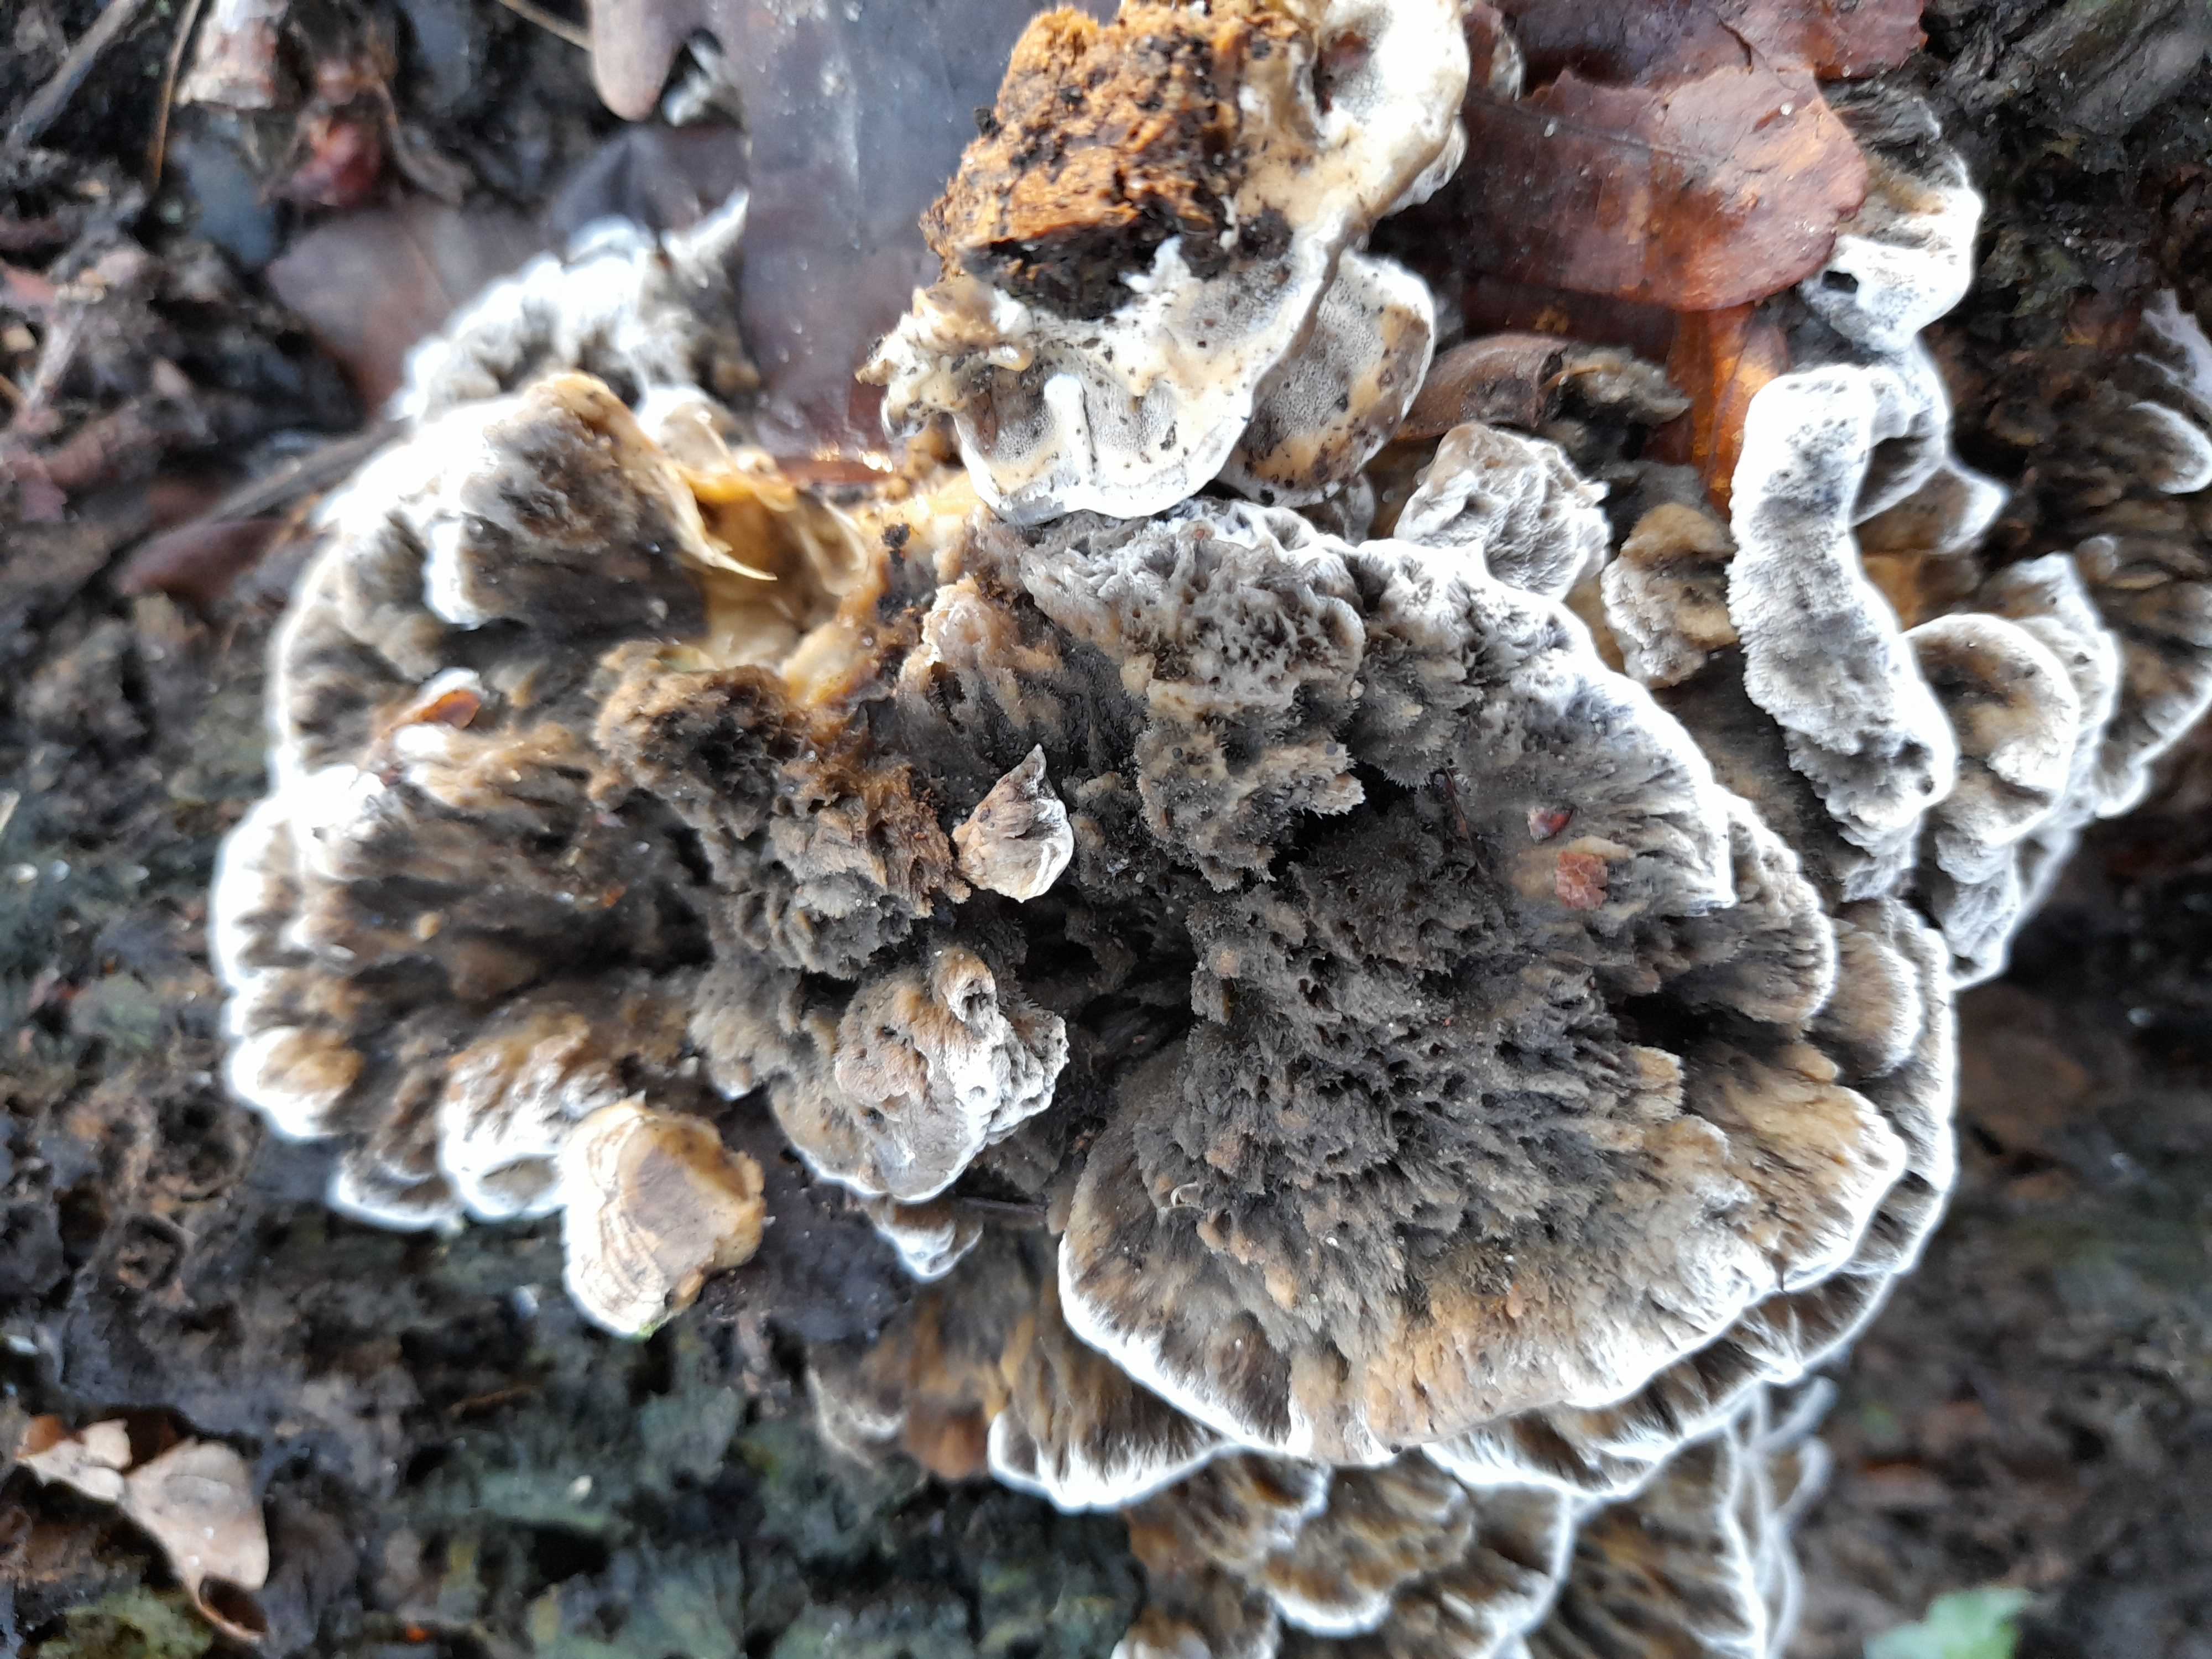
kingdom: Fungi
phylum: Basidiomycota
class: Agaricomycetes
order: Polyporales
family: Phanerochaetaceae
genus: Bjerkandera
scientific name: Bjerkandera adusta
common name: sveden sodporesvamp
